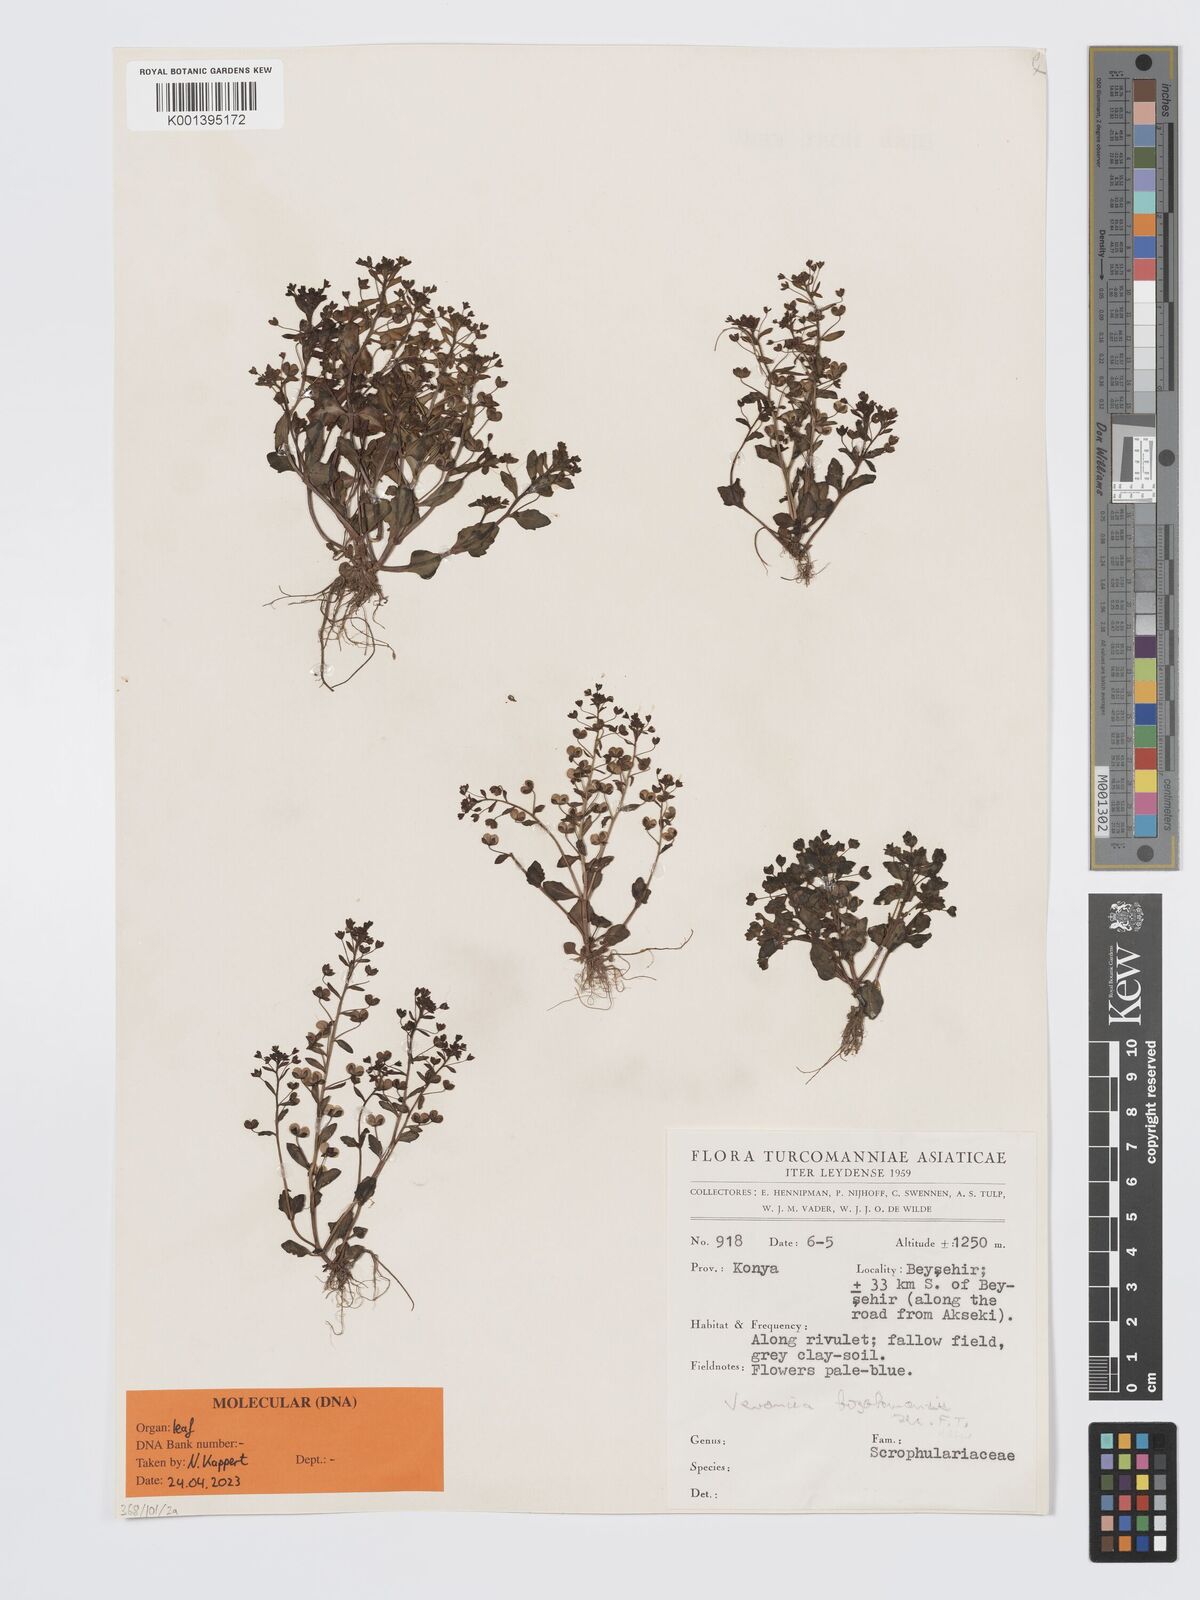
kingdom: Plantae
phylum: Tracheophyta
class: Magnoliopsida
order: Lamiales
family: Plantaginaceae
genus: Veronica
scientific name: Veronica bozakmanii
